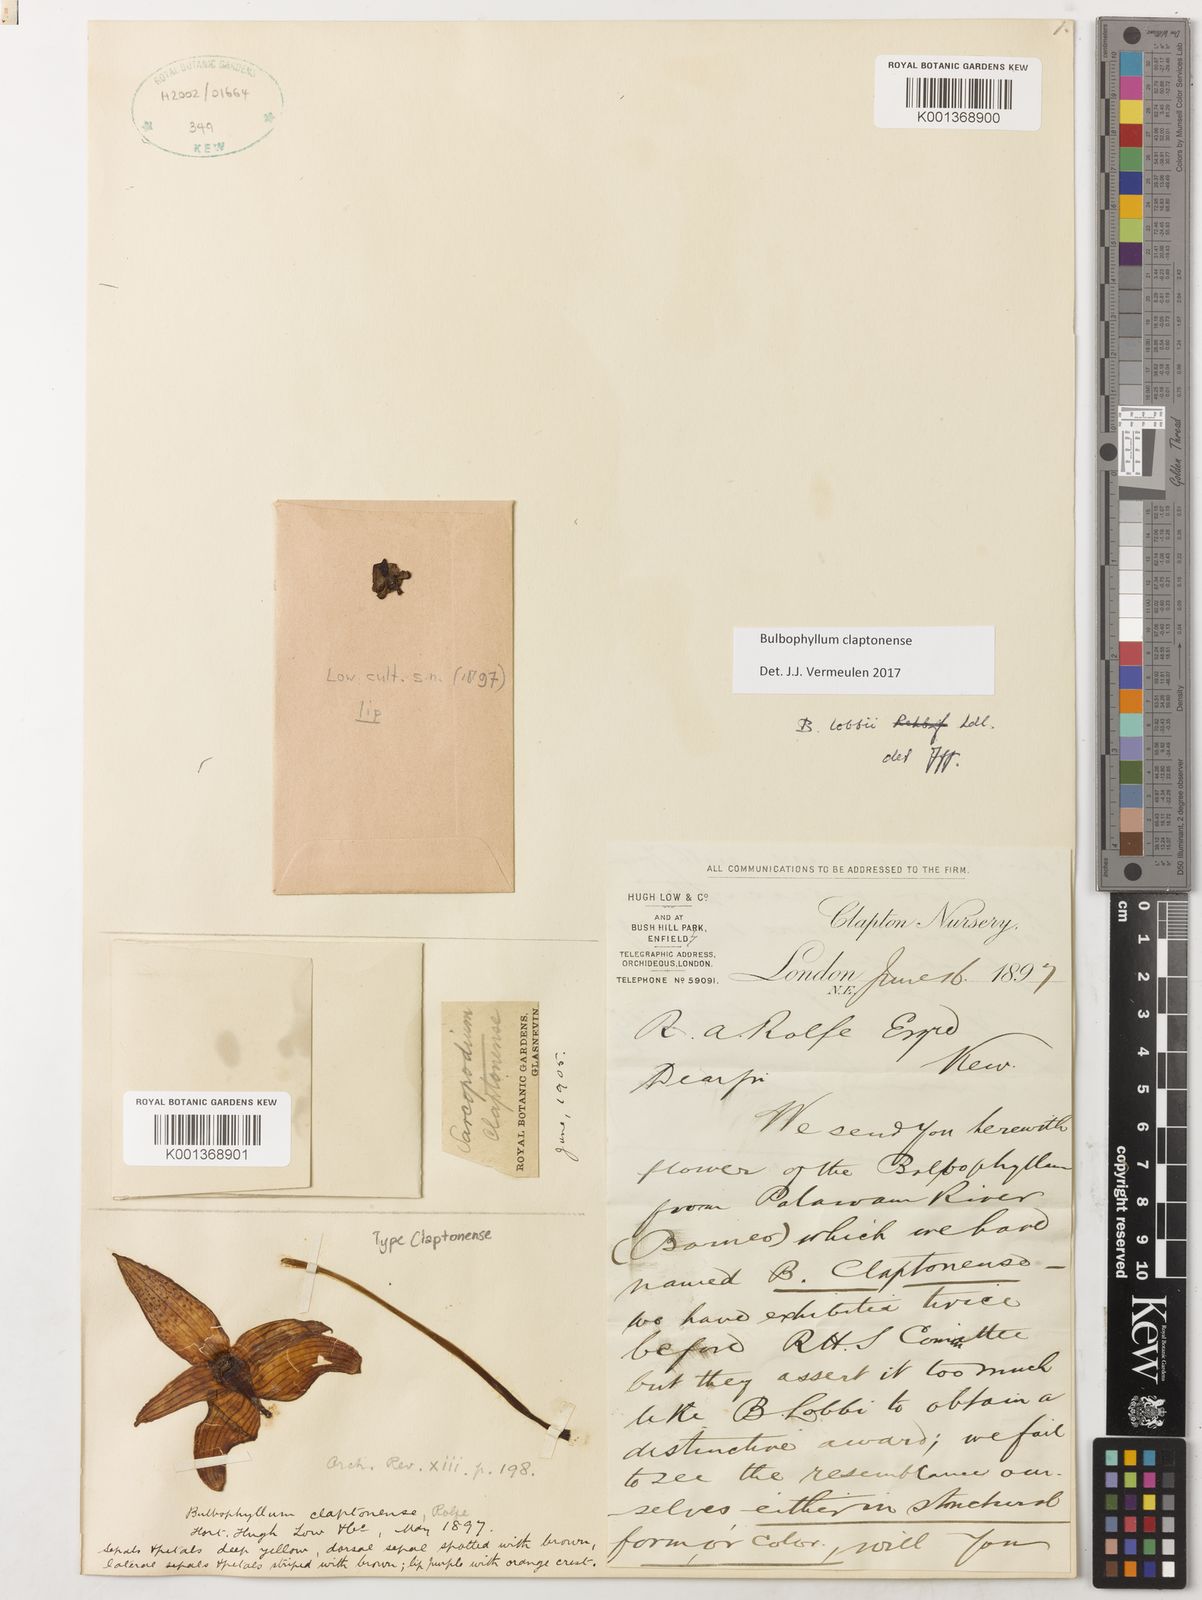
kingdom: Plantae
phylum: Tracheophyta
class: Liliopsida
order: Asparagales
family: Orchidaceae
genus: Bulbophyllum
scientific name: Bulbophyllum claptonense
